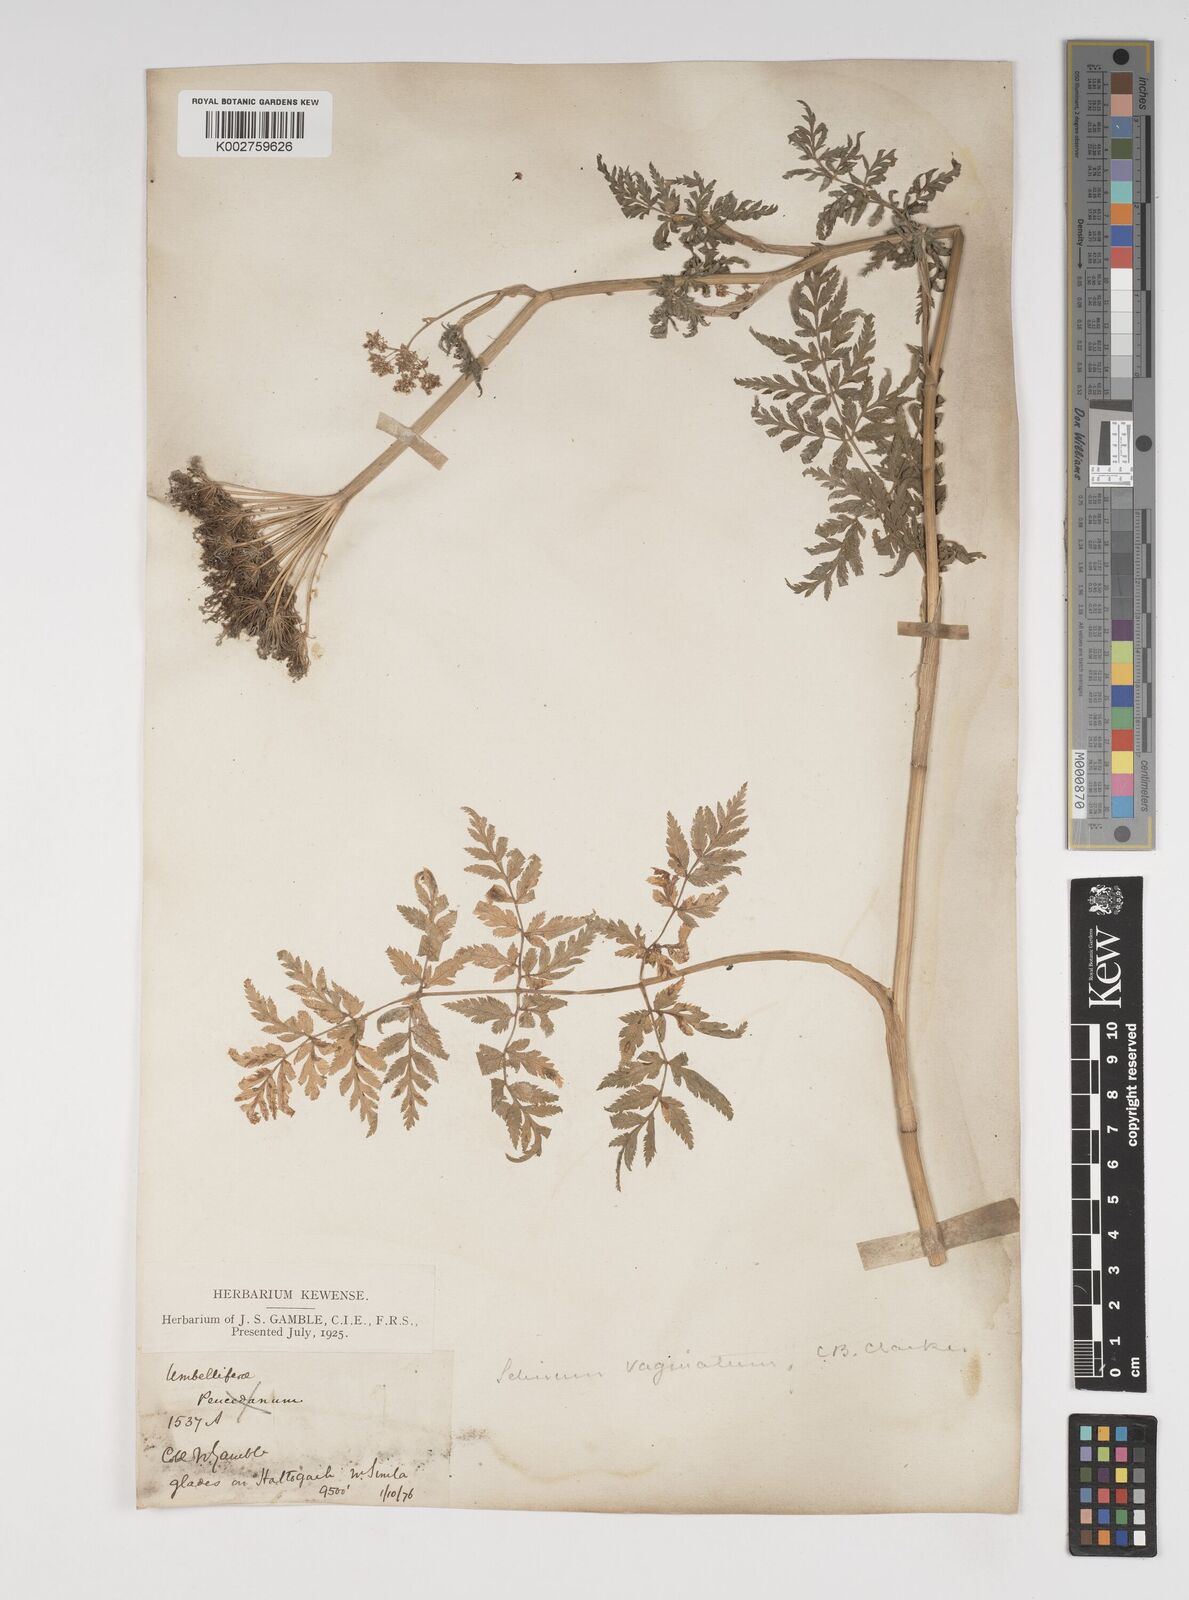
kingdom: Plantae
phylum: Tracheophyta
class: Magnoliopsida
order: Apiales
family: Apiaceae
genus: Selinum
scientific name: Selinum vaginatum
